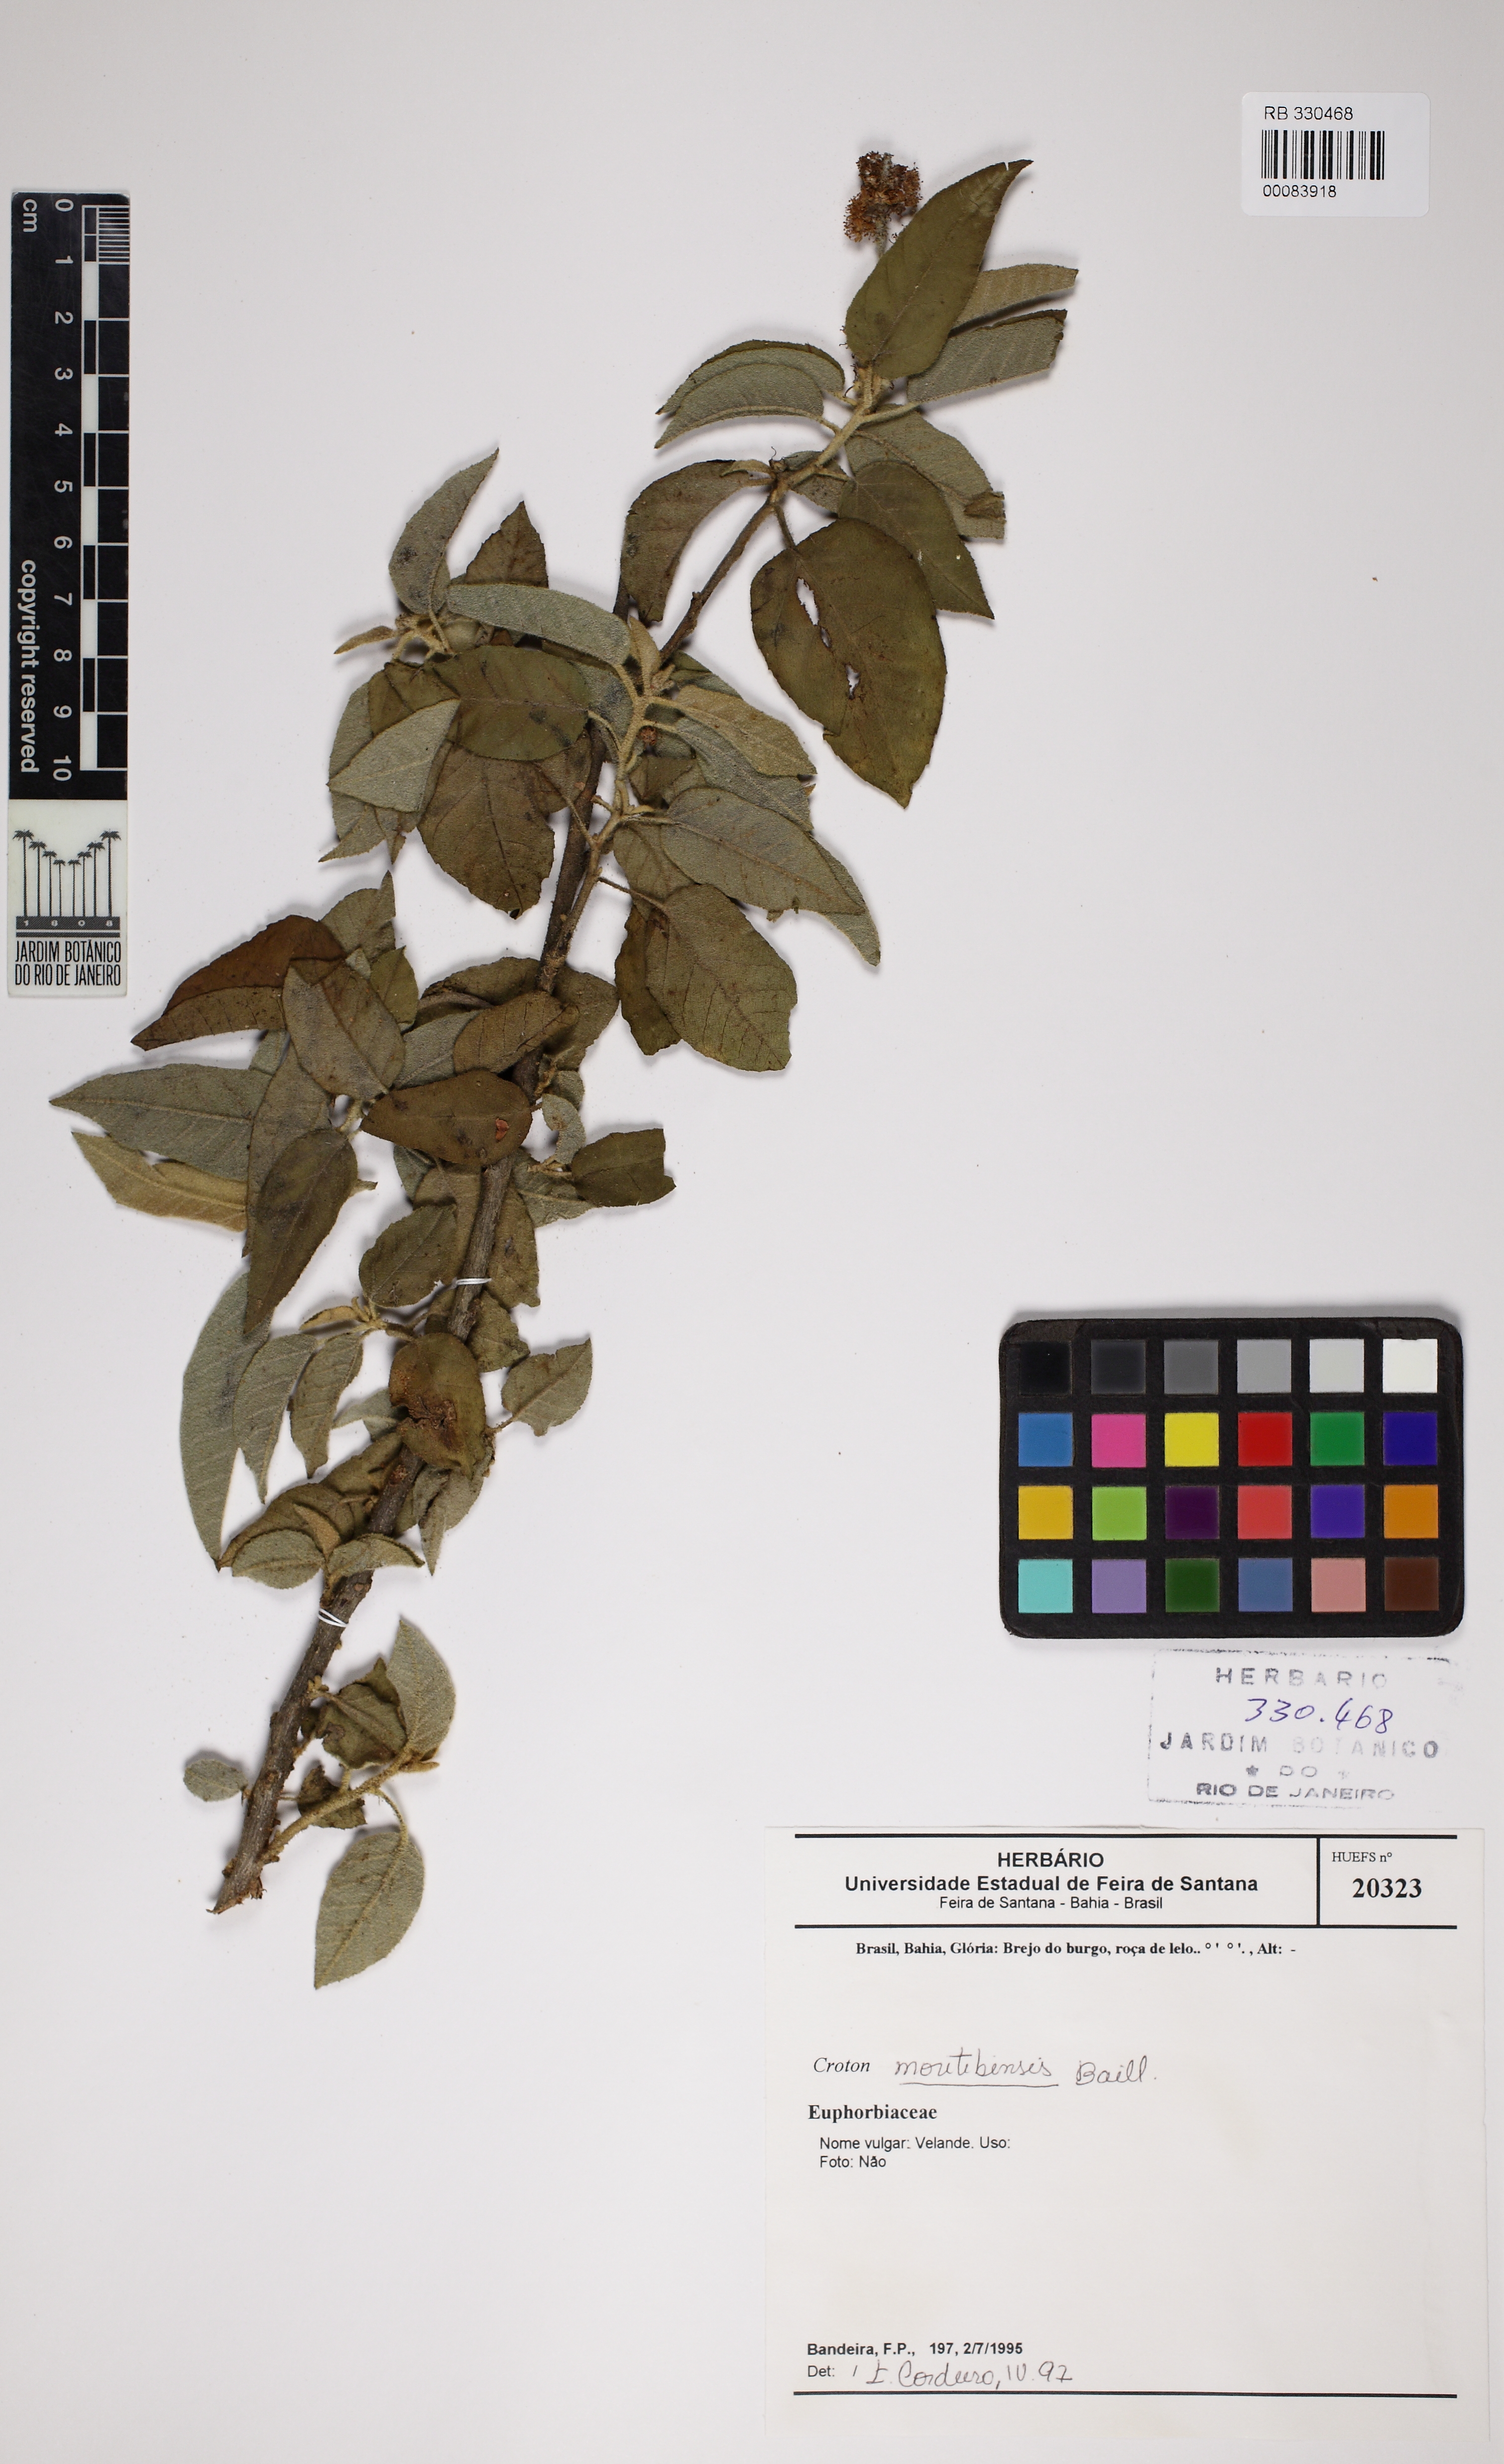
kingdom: Plantae
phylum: Tracheophyta
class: Magnoliopsida
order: Malpighiales
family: Euphorbiaceae
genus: Croton
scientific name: Croton heliotropiifolius
